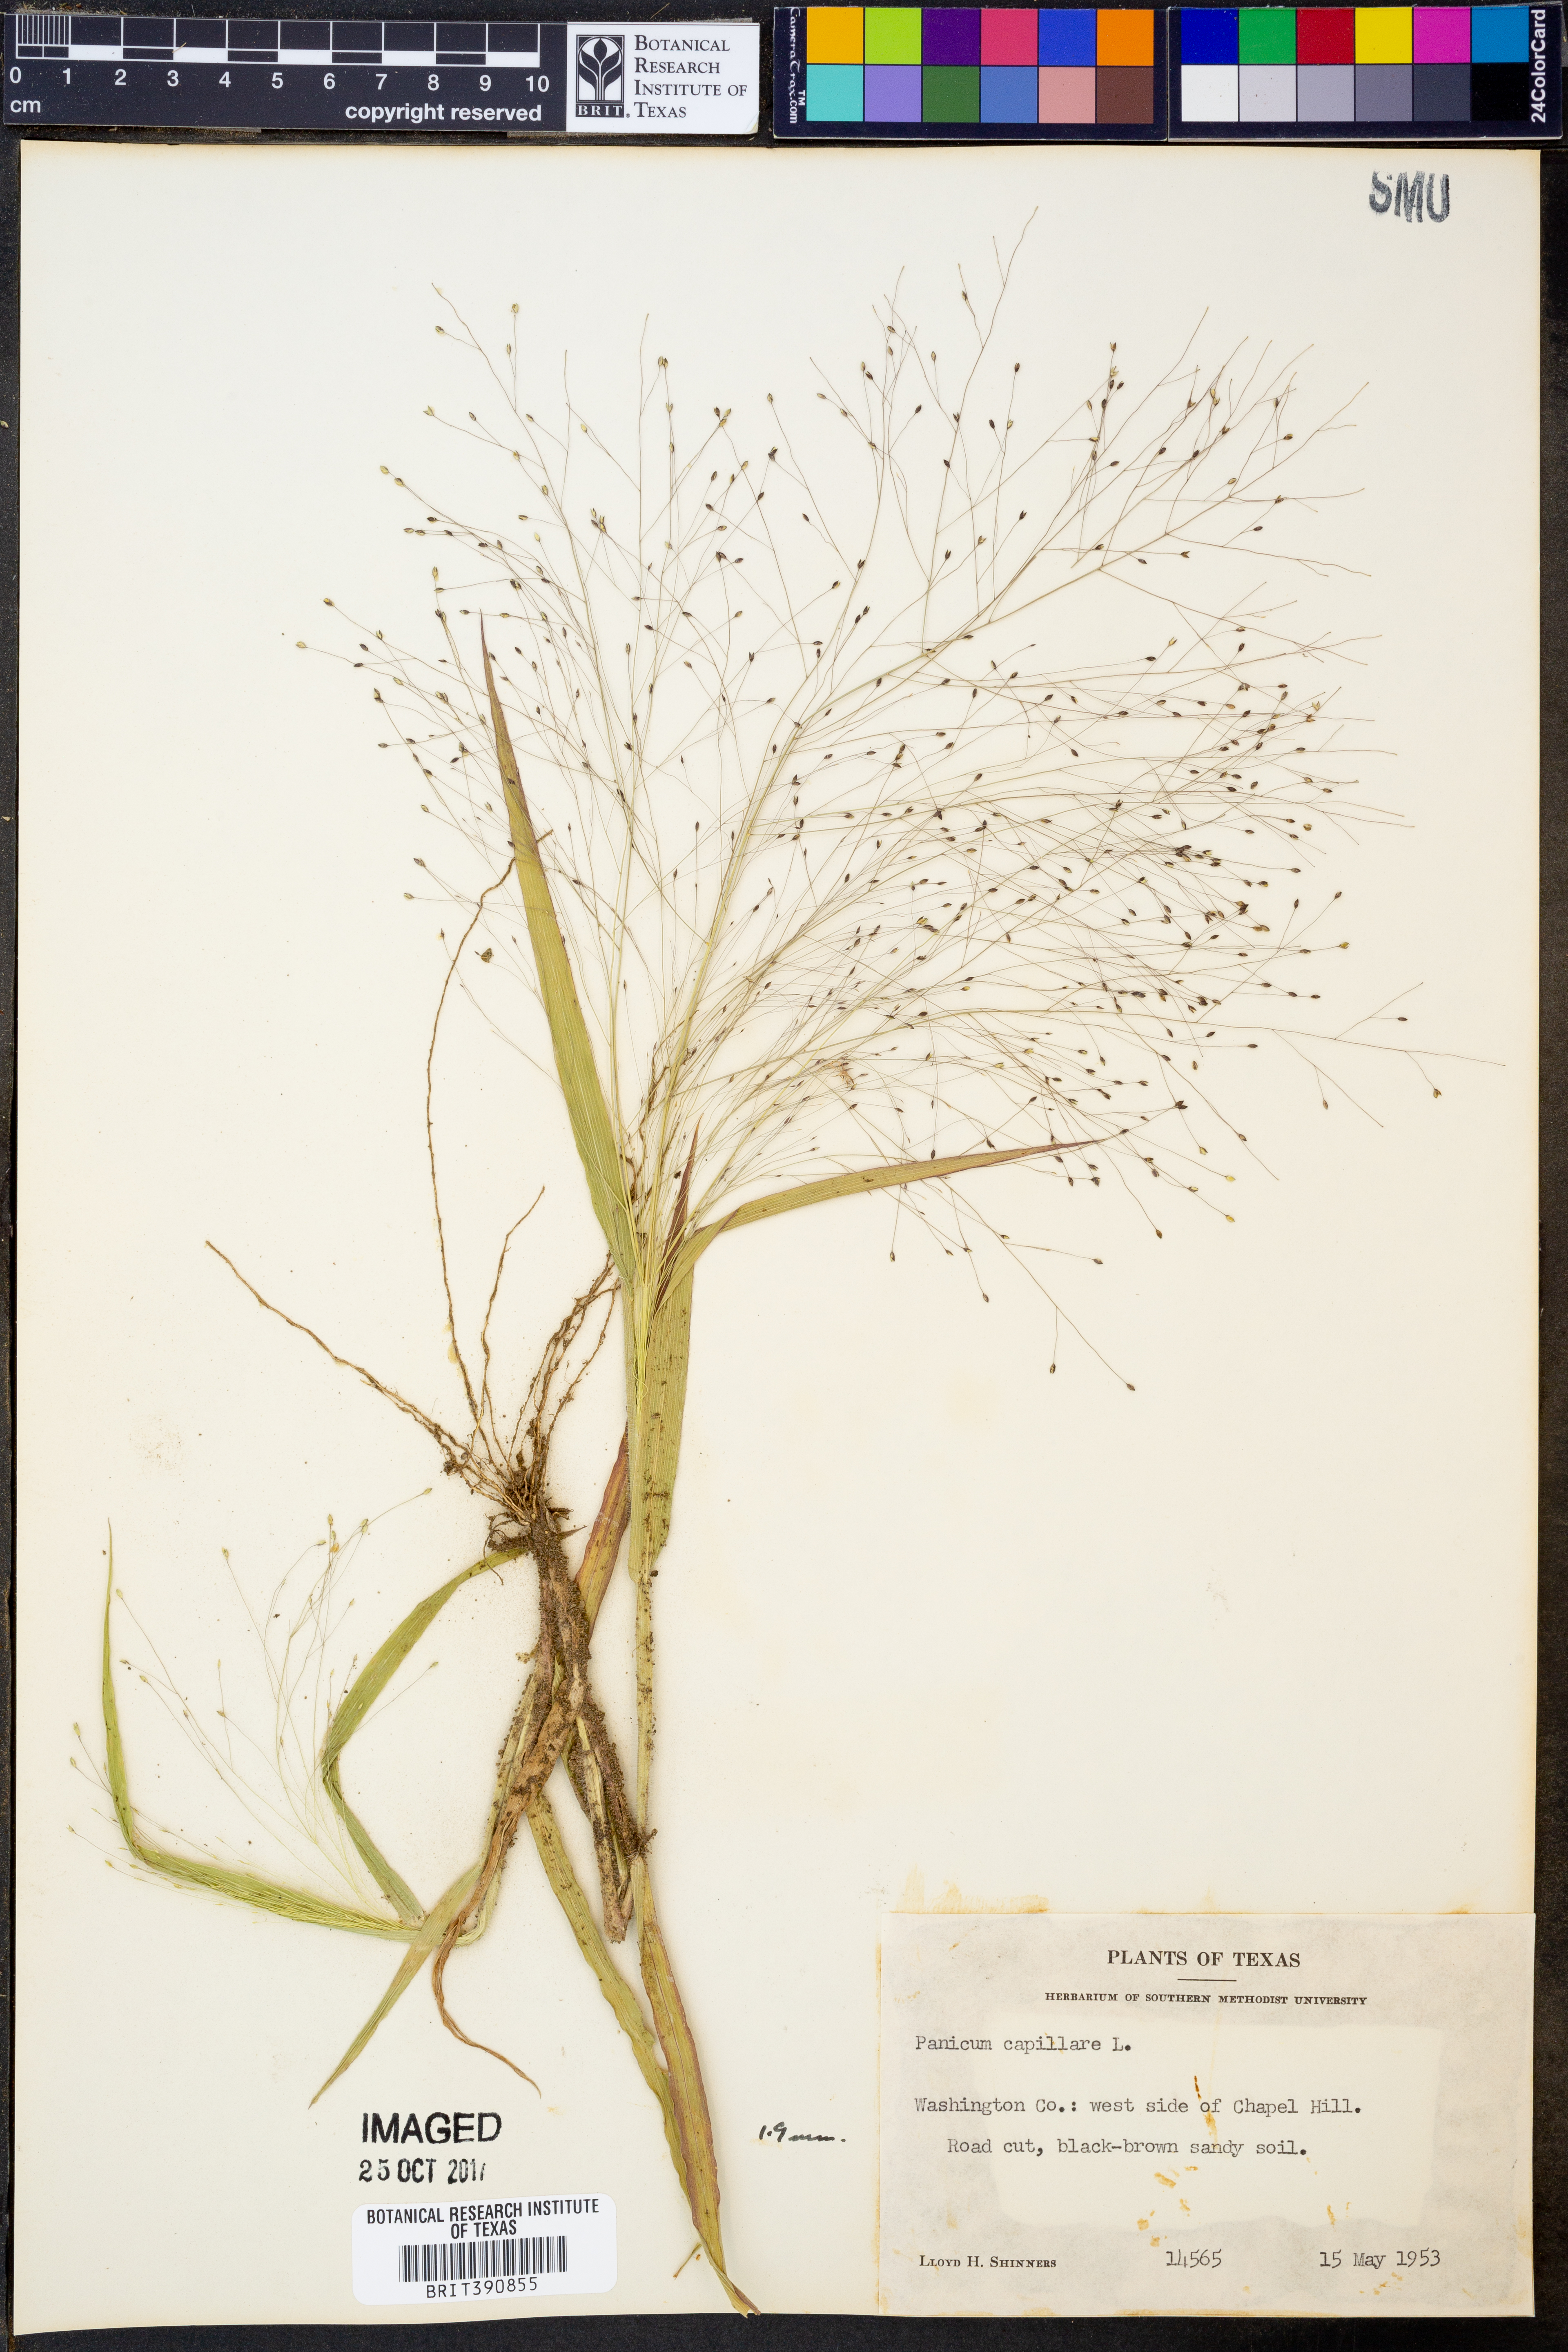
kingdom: Plantae
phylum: Tracheophyta
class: Liliopsida
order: Poales
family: Poaceae
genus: Panicum
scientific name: Panicum capillare
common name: Witch-grass
